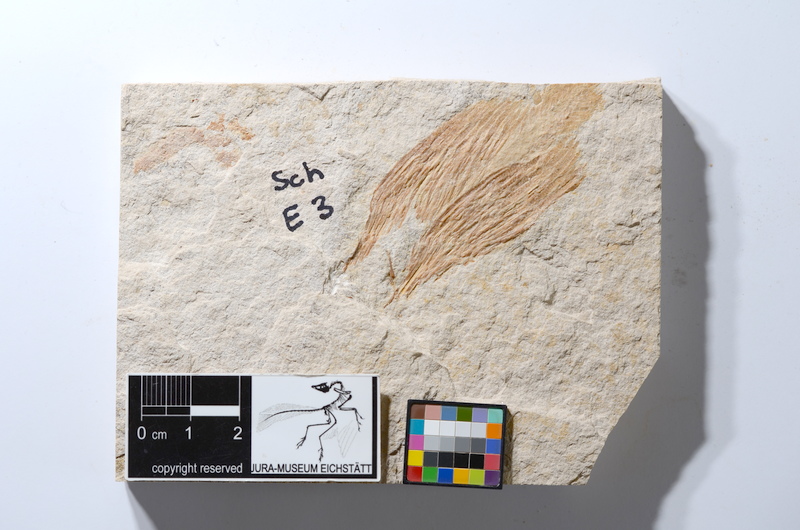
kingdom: Animalia
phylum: Chordata
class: Coelacanthi
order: Coelacanthiformes
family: Coelacanthidae
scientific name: Coelacanthidae
